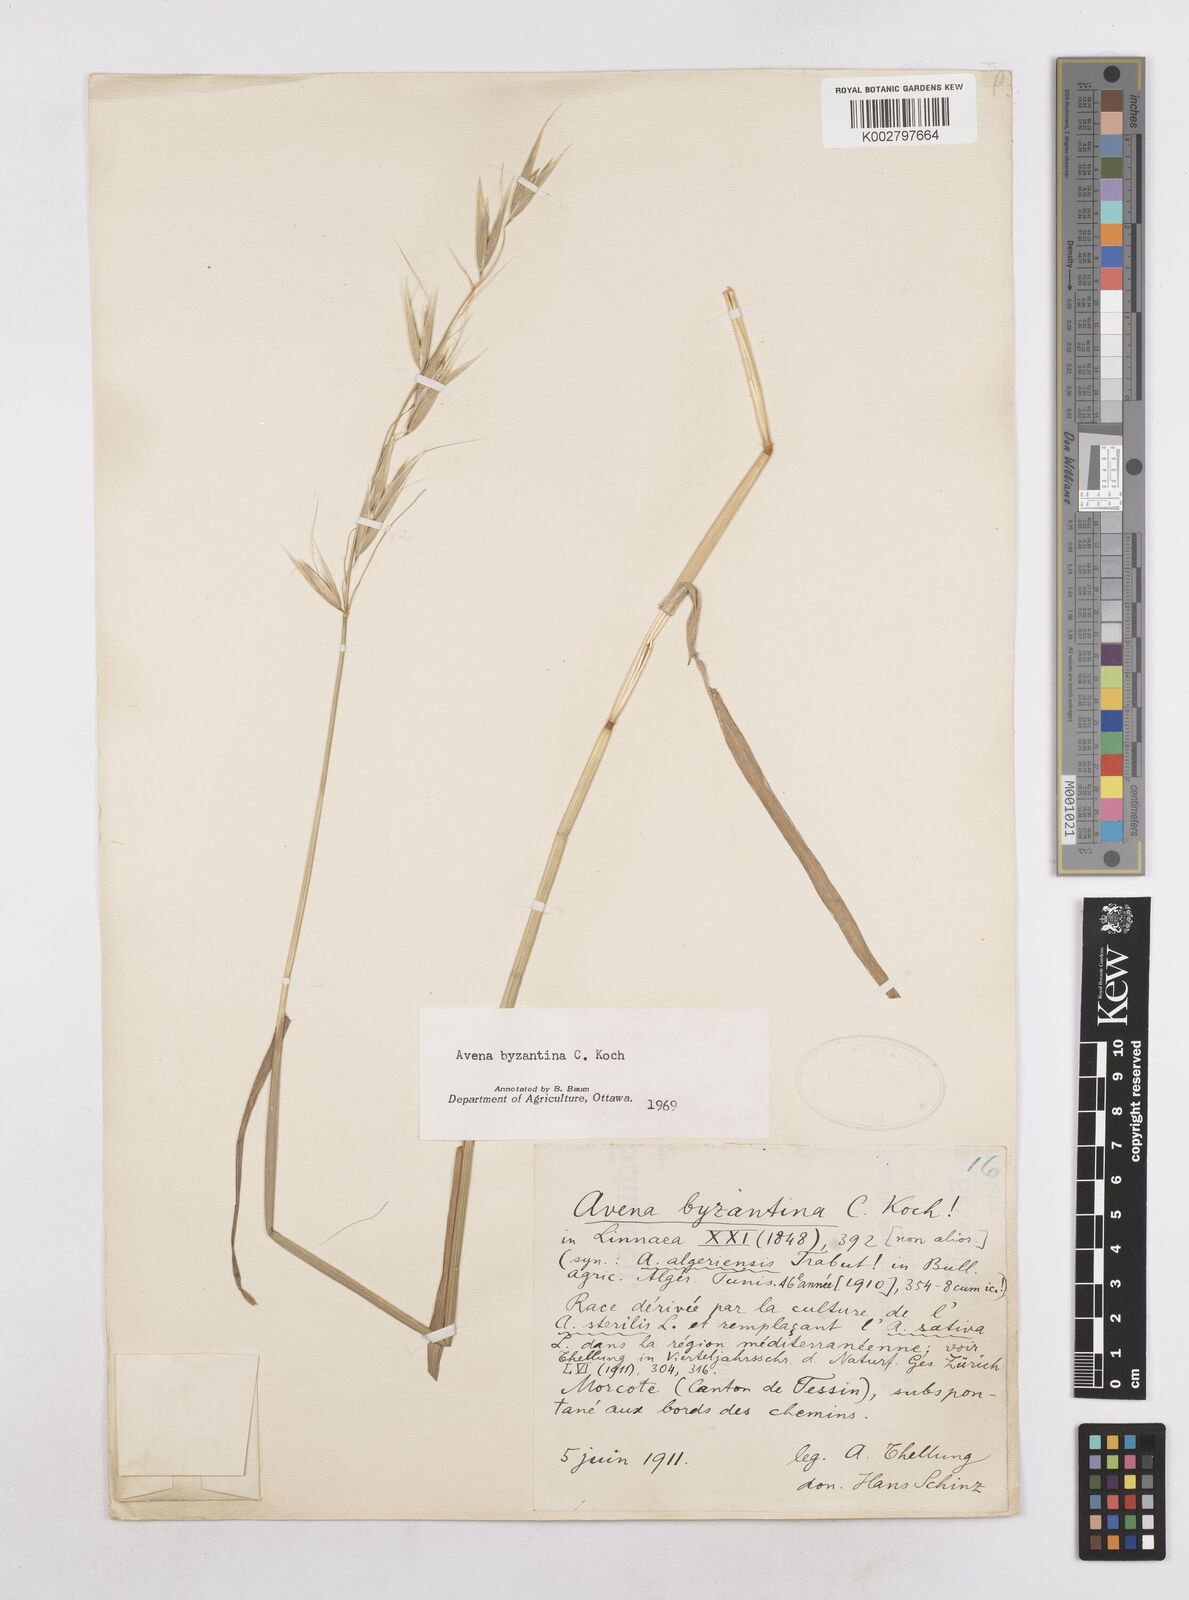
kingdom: Plantae
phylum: Tracheophyta
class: Liliopsida
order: Poales
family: Poaceae
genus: Avena
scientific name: Avena byzantina
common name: Algerian oat
